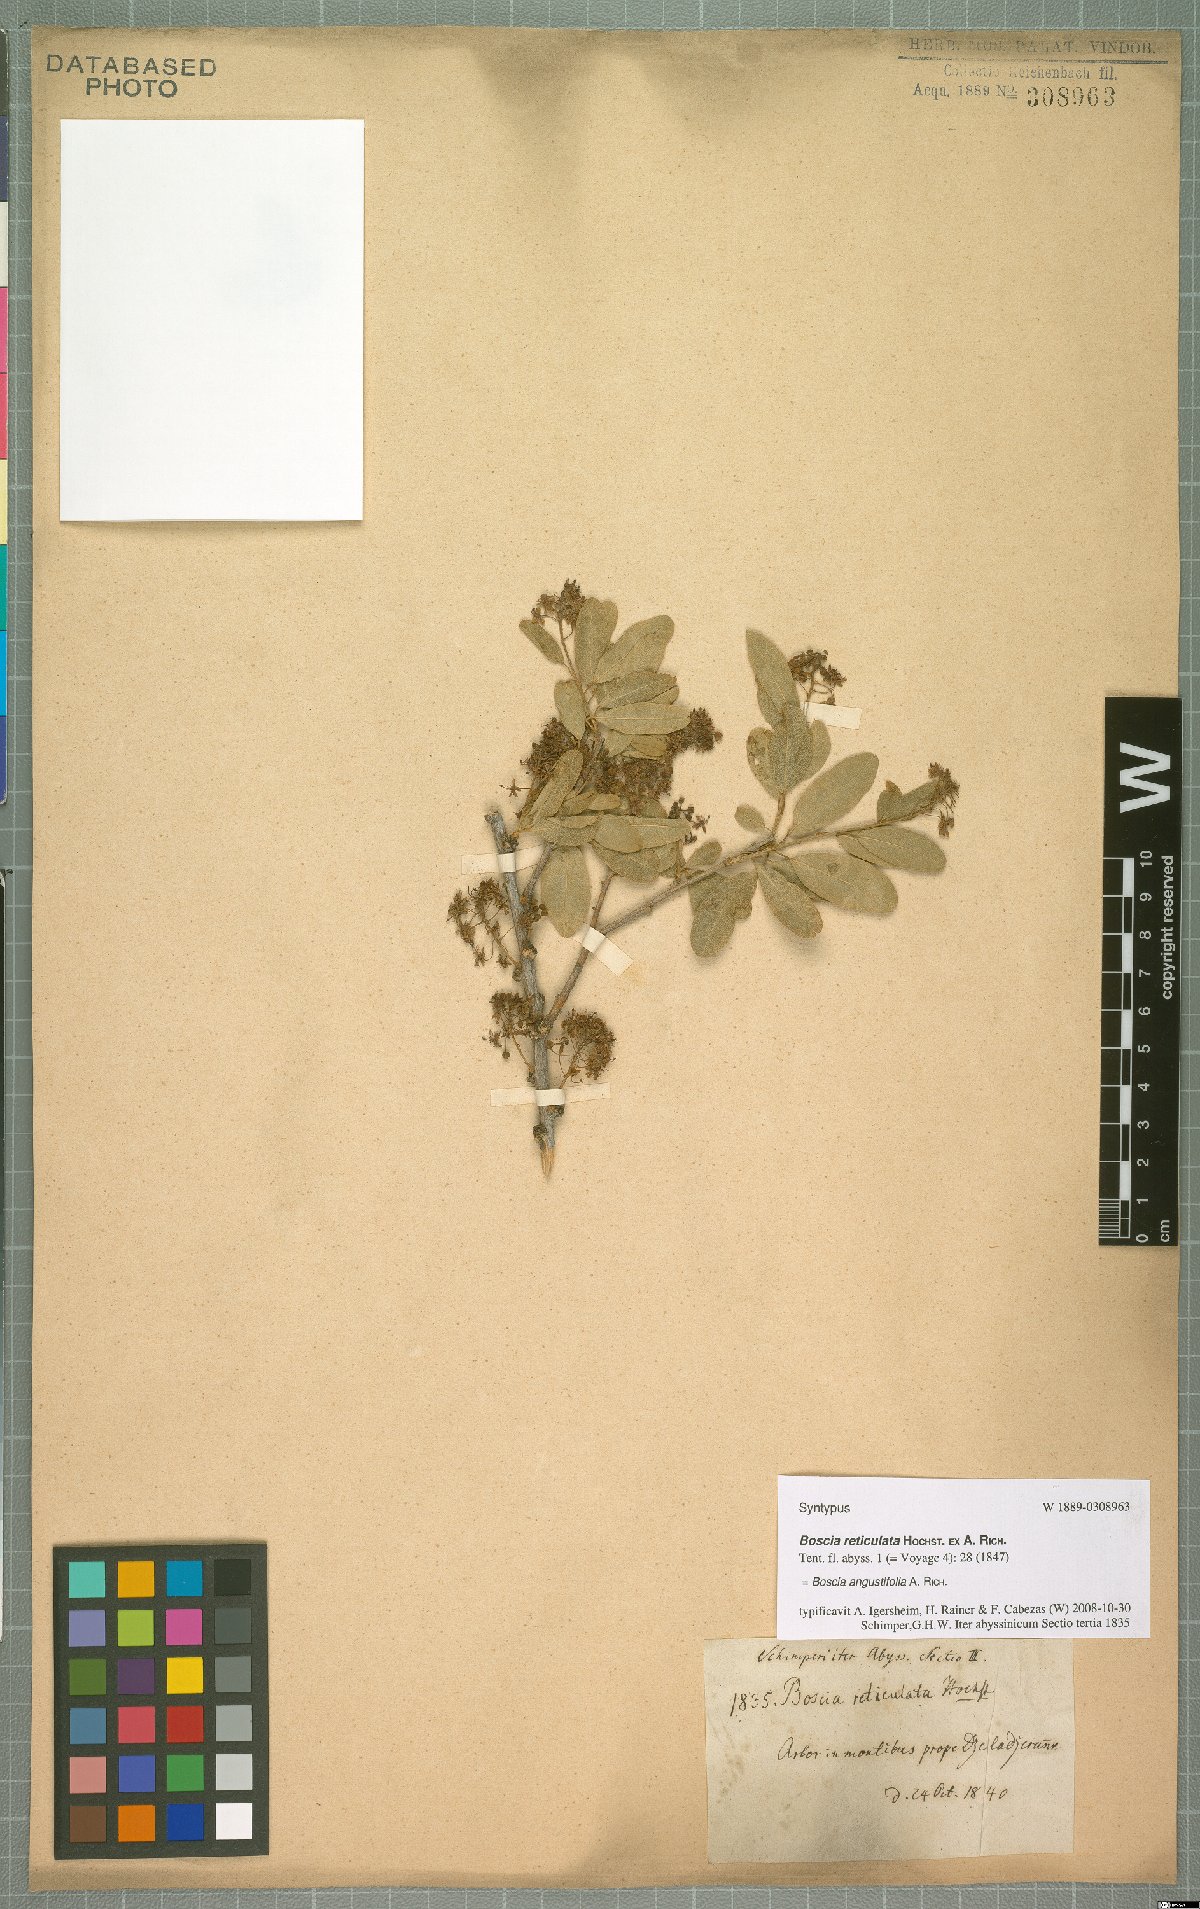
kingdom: Plantae
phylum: Tracheophyta
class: Magnoliopsida
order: Brassicales
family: Capparaceae
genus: Boscia
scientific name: Boscia angustifolia
